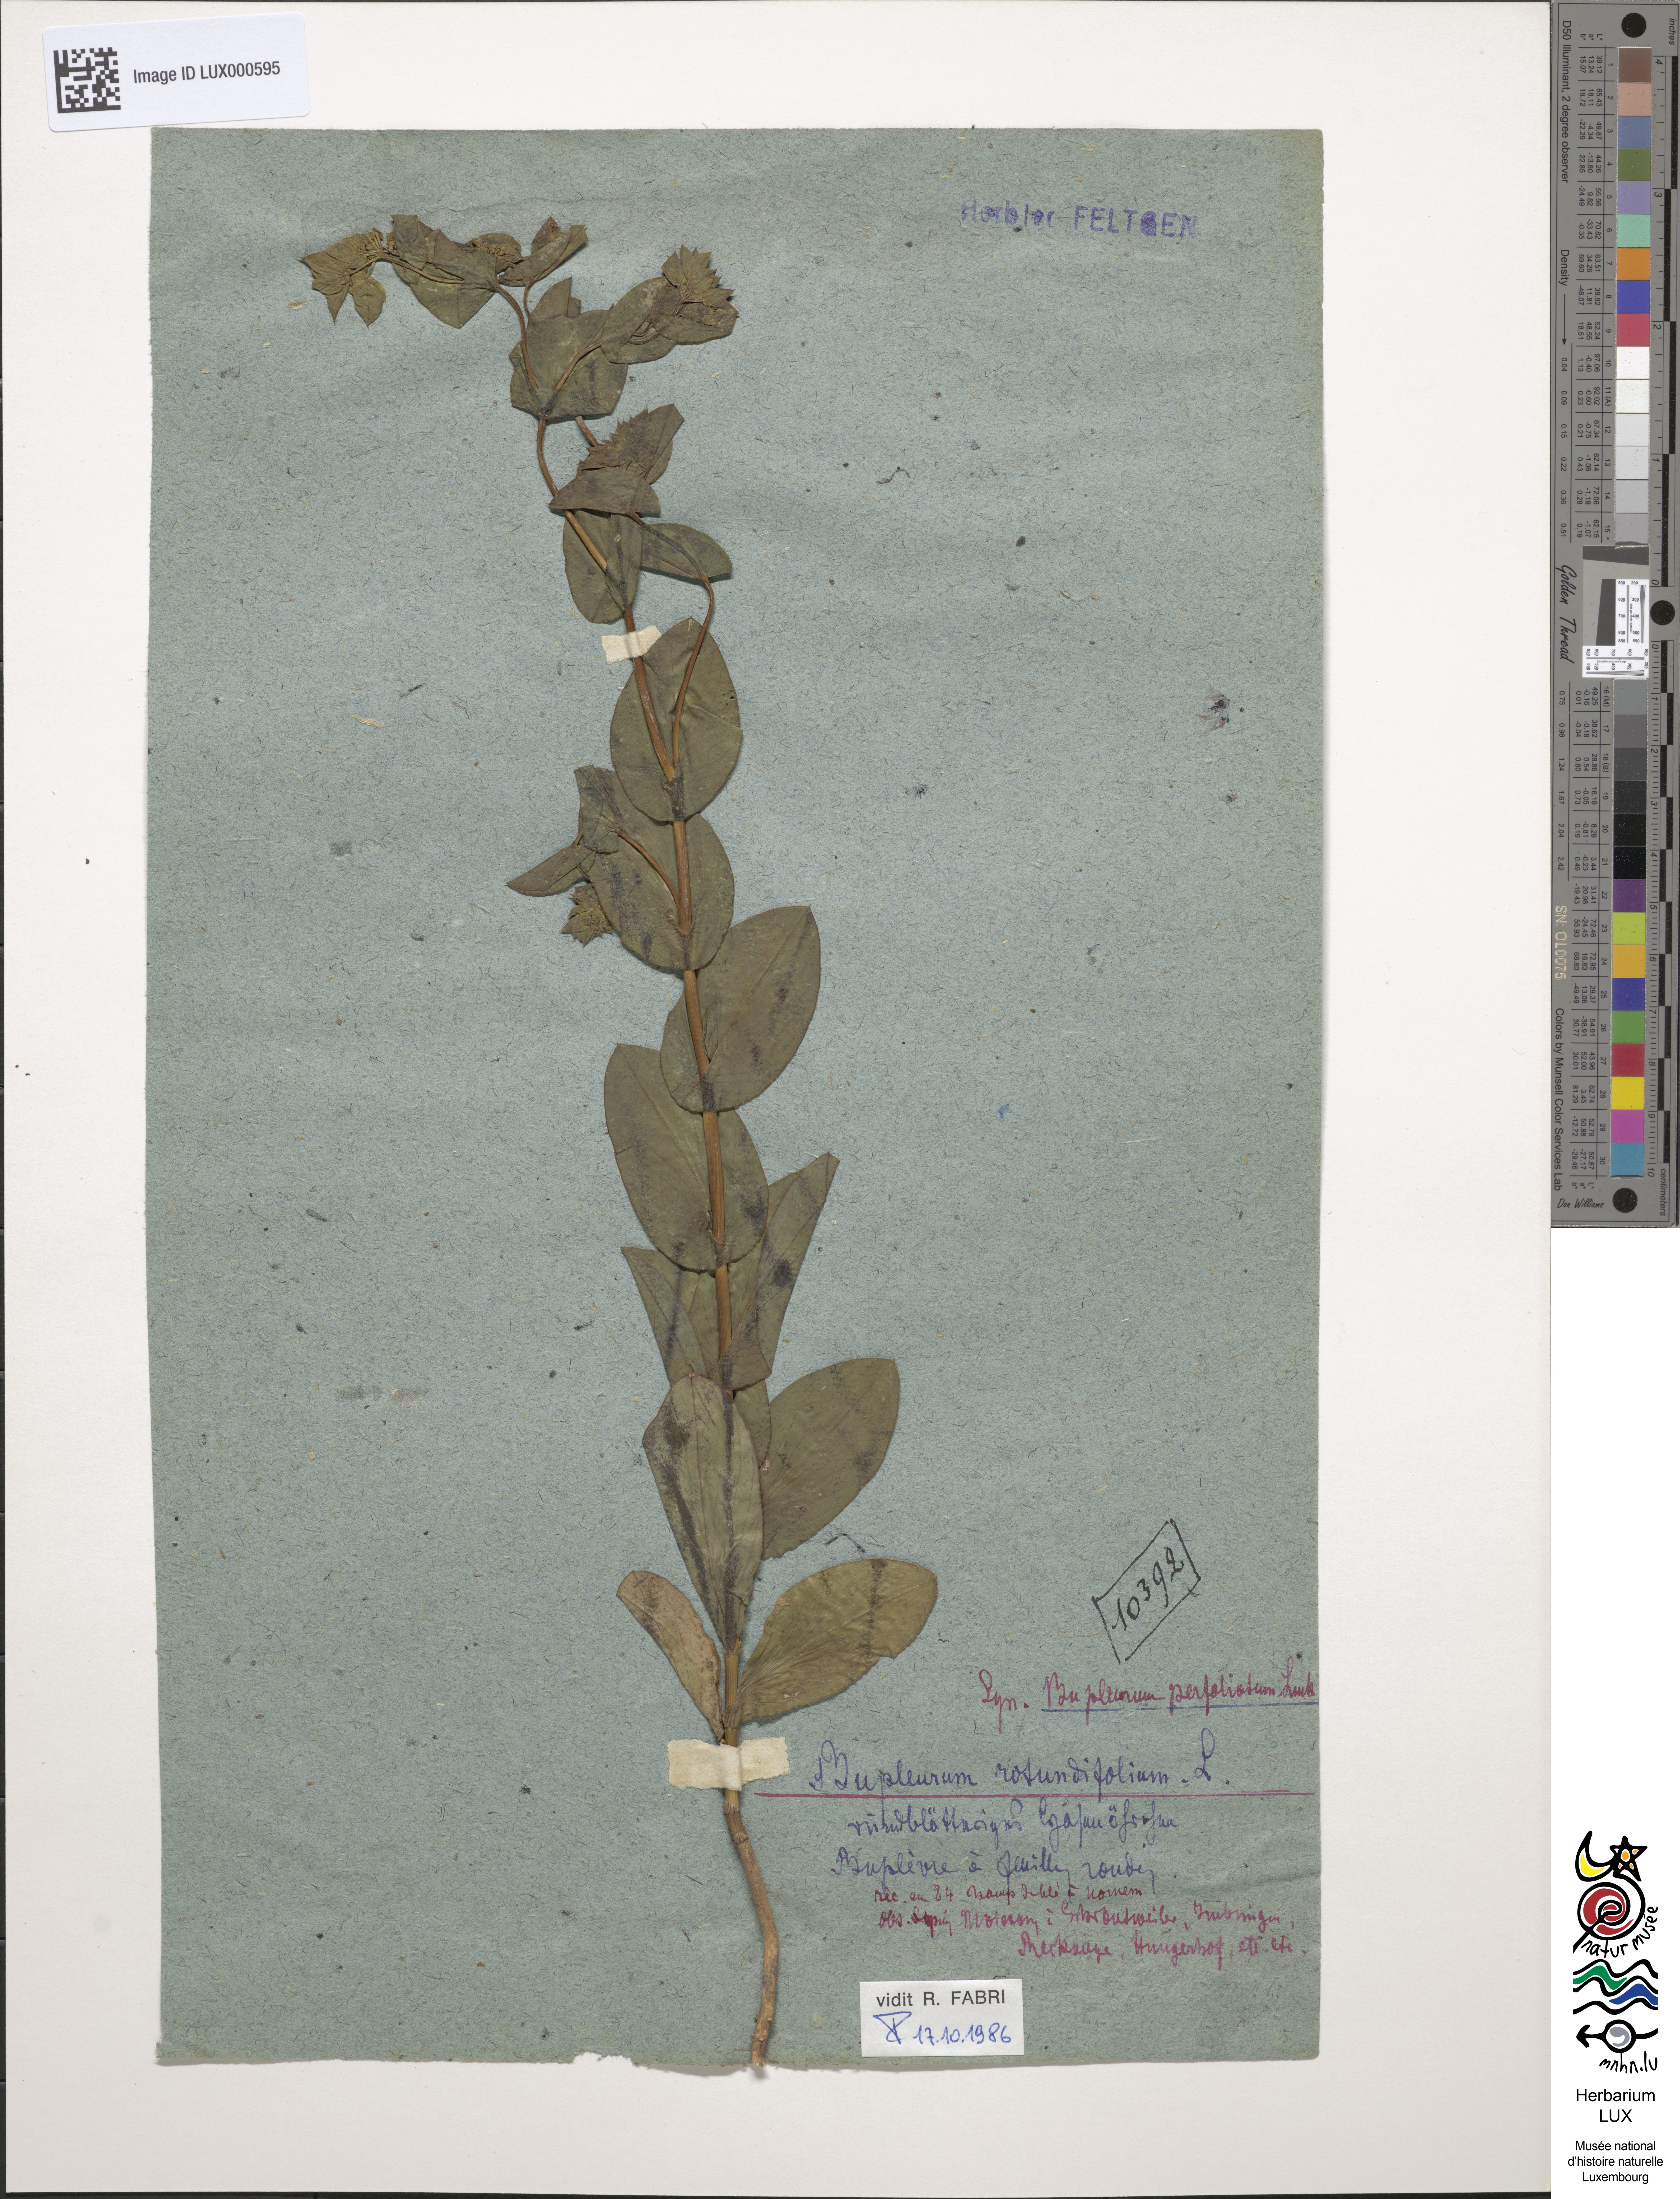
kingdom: Plantae
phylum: Tracheophyta
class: Magnoliopsida
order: Apiales
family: Apiaceae
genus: Bupleurum
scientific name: Bupleurum rotundifolium
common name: Thorow-wax
